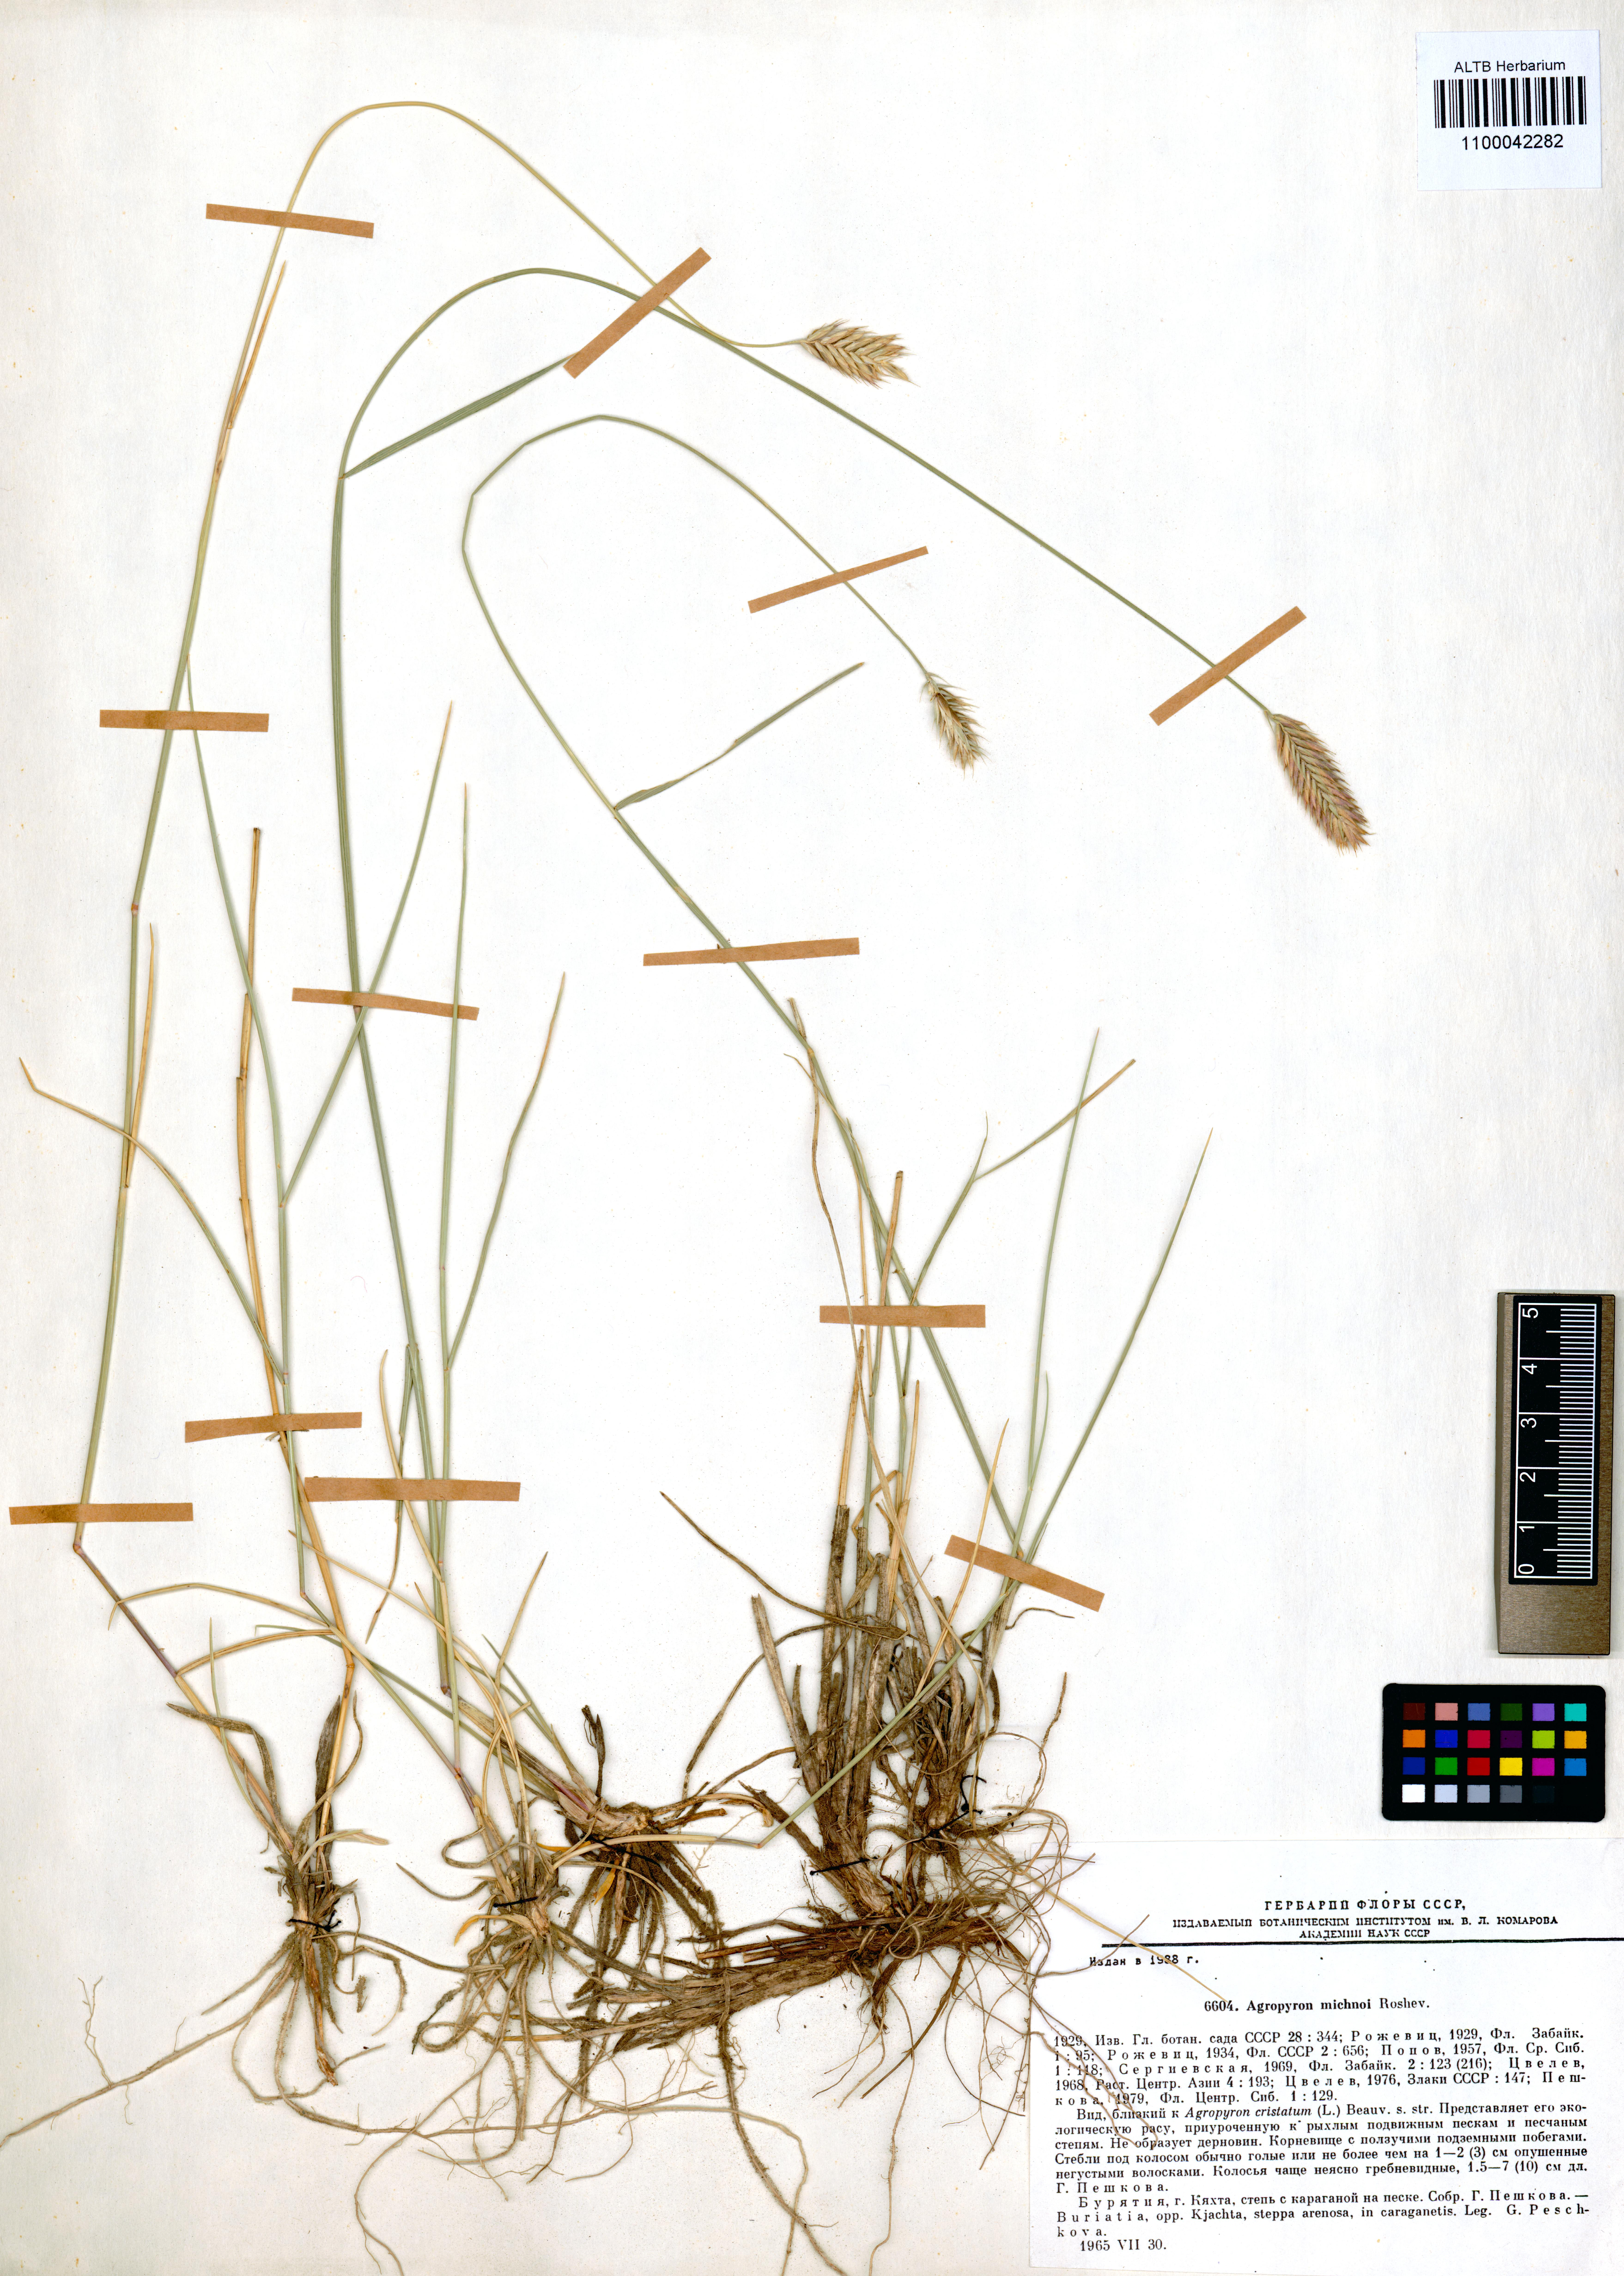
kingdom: Plantae
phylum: Tracheophyta
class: Liliopsida
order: Poales
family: Poaceae
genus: Agropyron
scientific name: Agropyron michnoi
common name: Michno's wheatgrass
